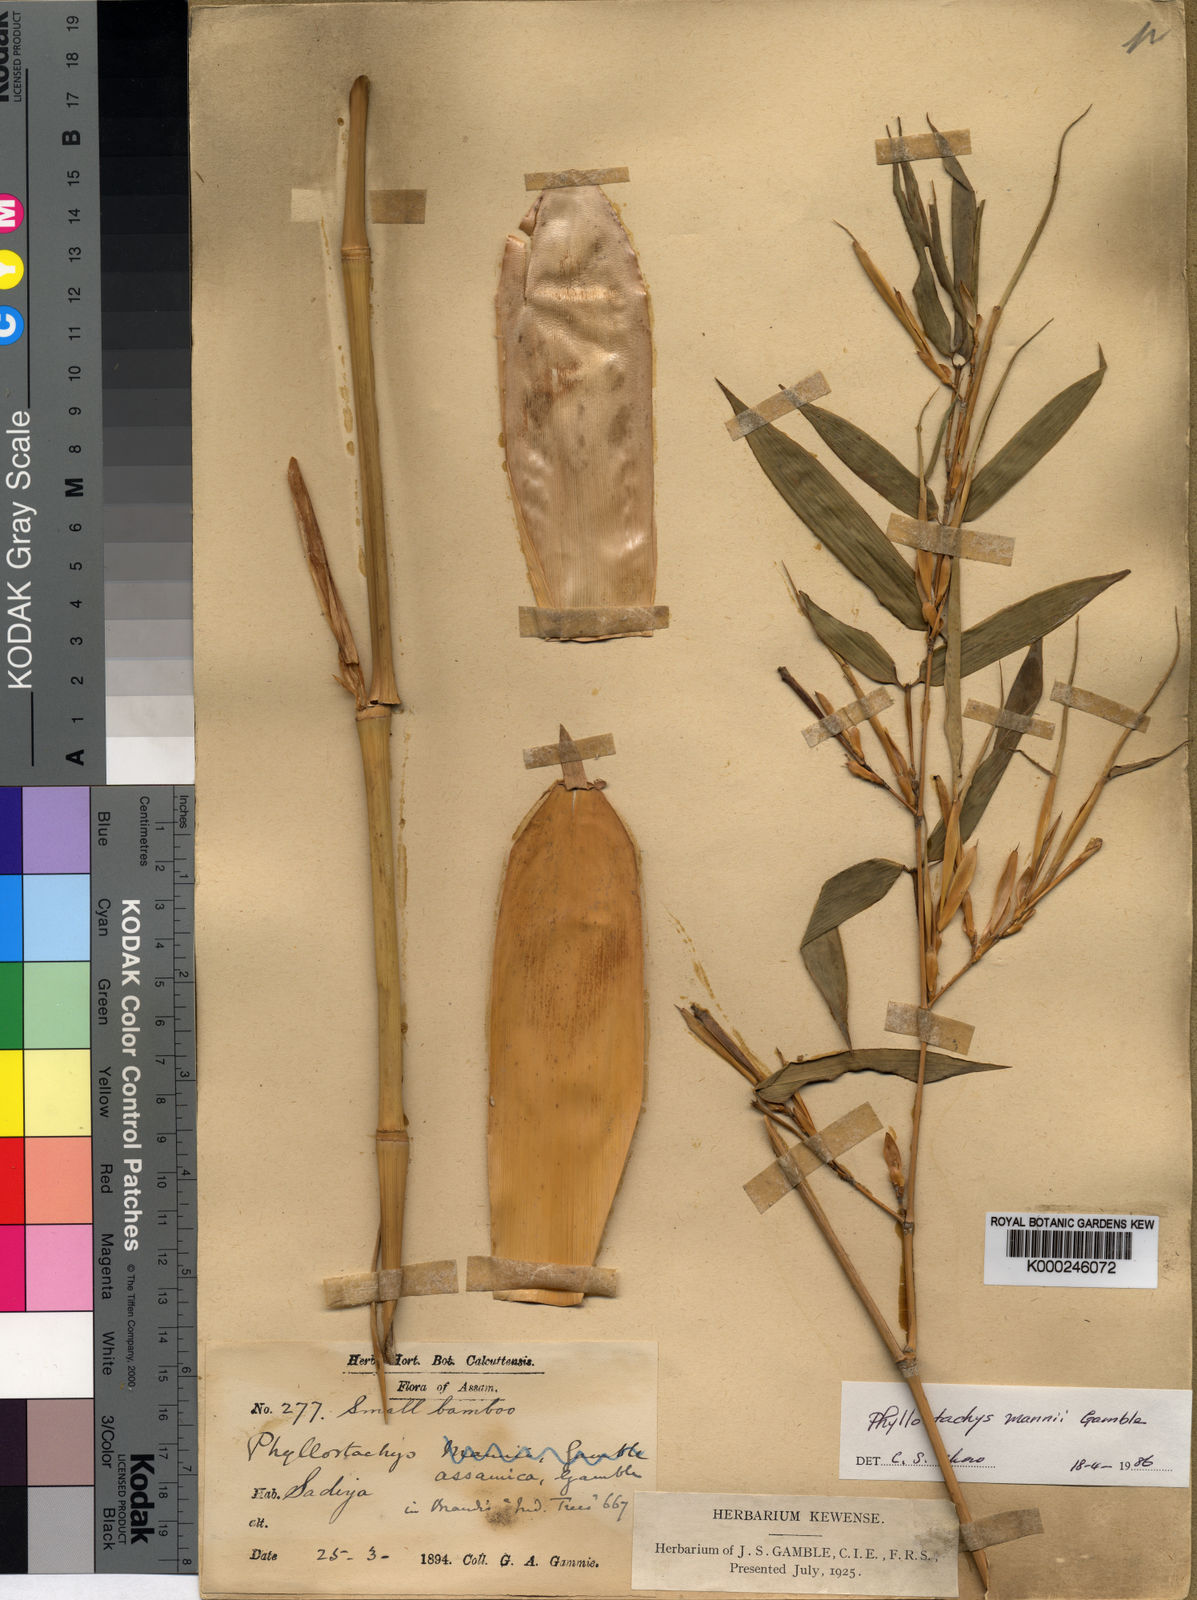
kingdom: Plantae
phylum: Tracheophyta
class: Liliopsida
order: Poales
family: Poaceae
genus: Phyllostachys
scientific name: Phyllostachys mannii
